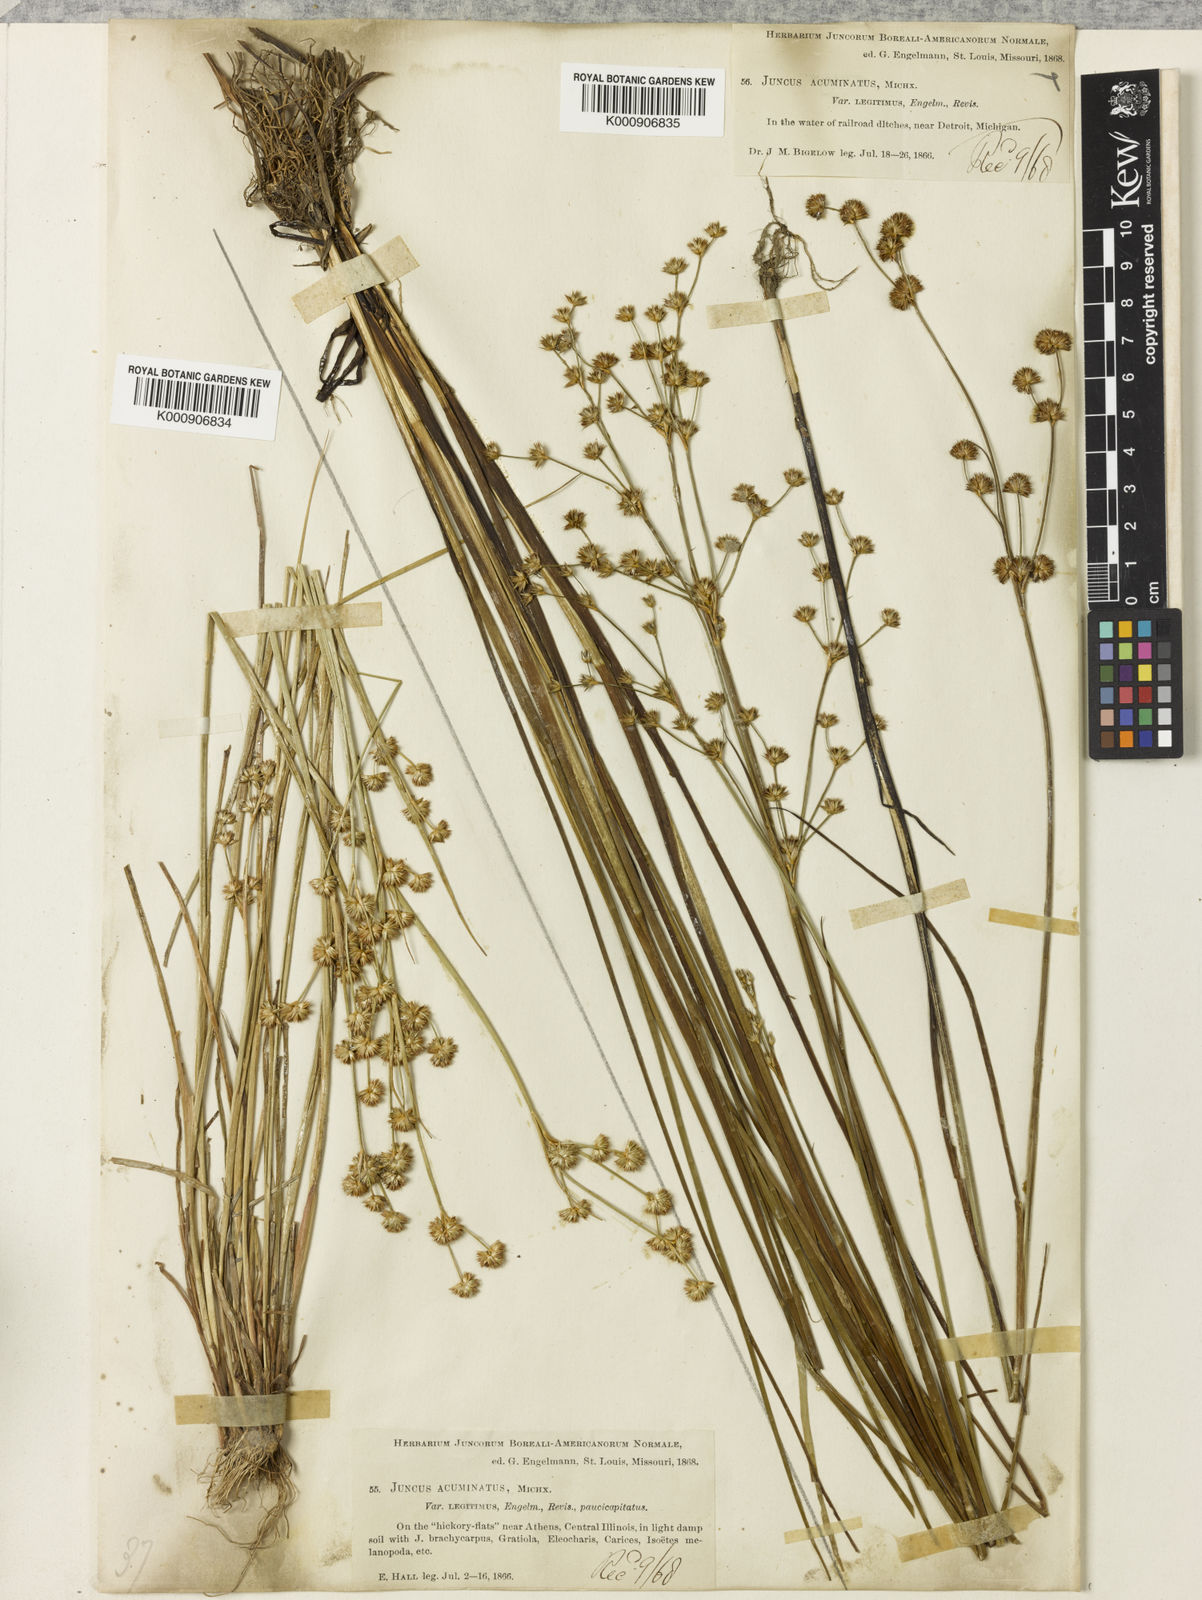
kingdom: Plantae
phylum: Tracheophyta
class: Liliopsida
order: Poales
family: Juncaceae
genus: Juncus
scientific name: Juncus acuminatus
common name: Knotty-leaved rush
